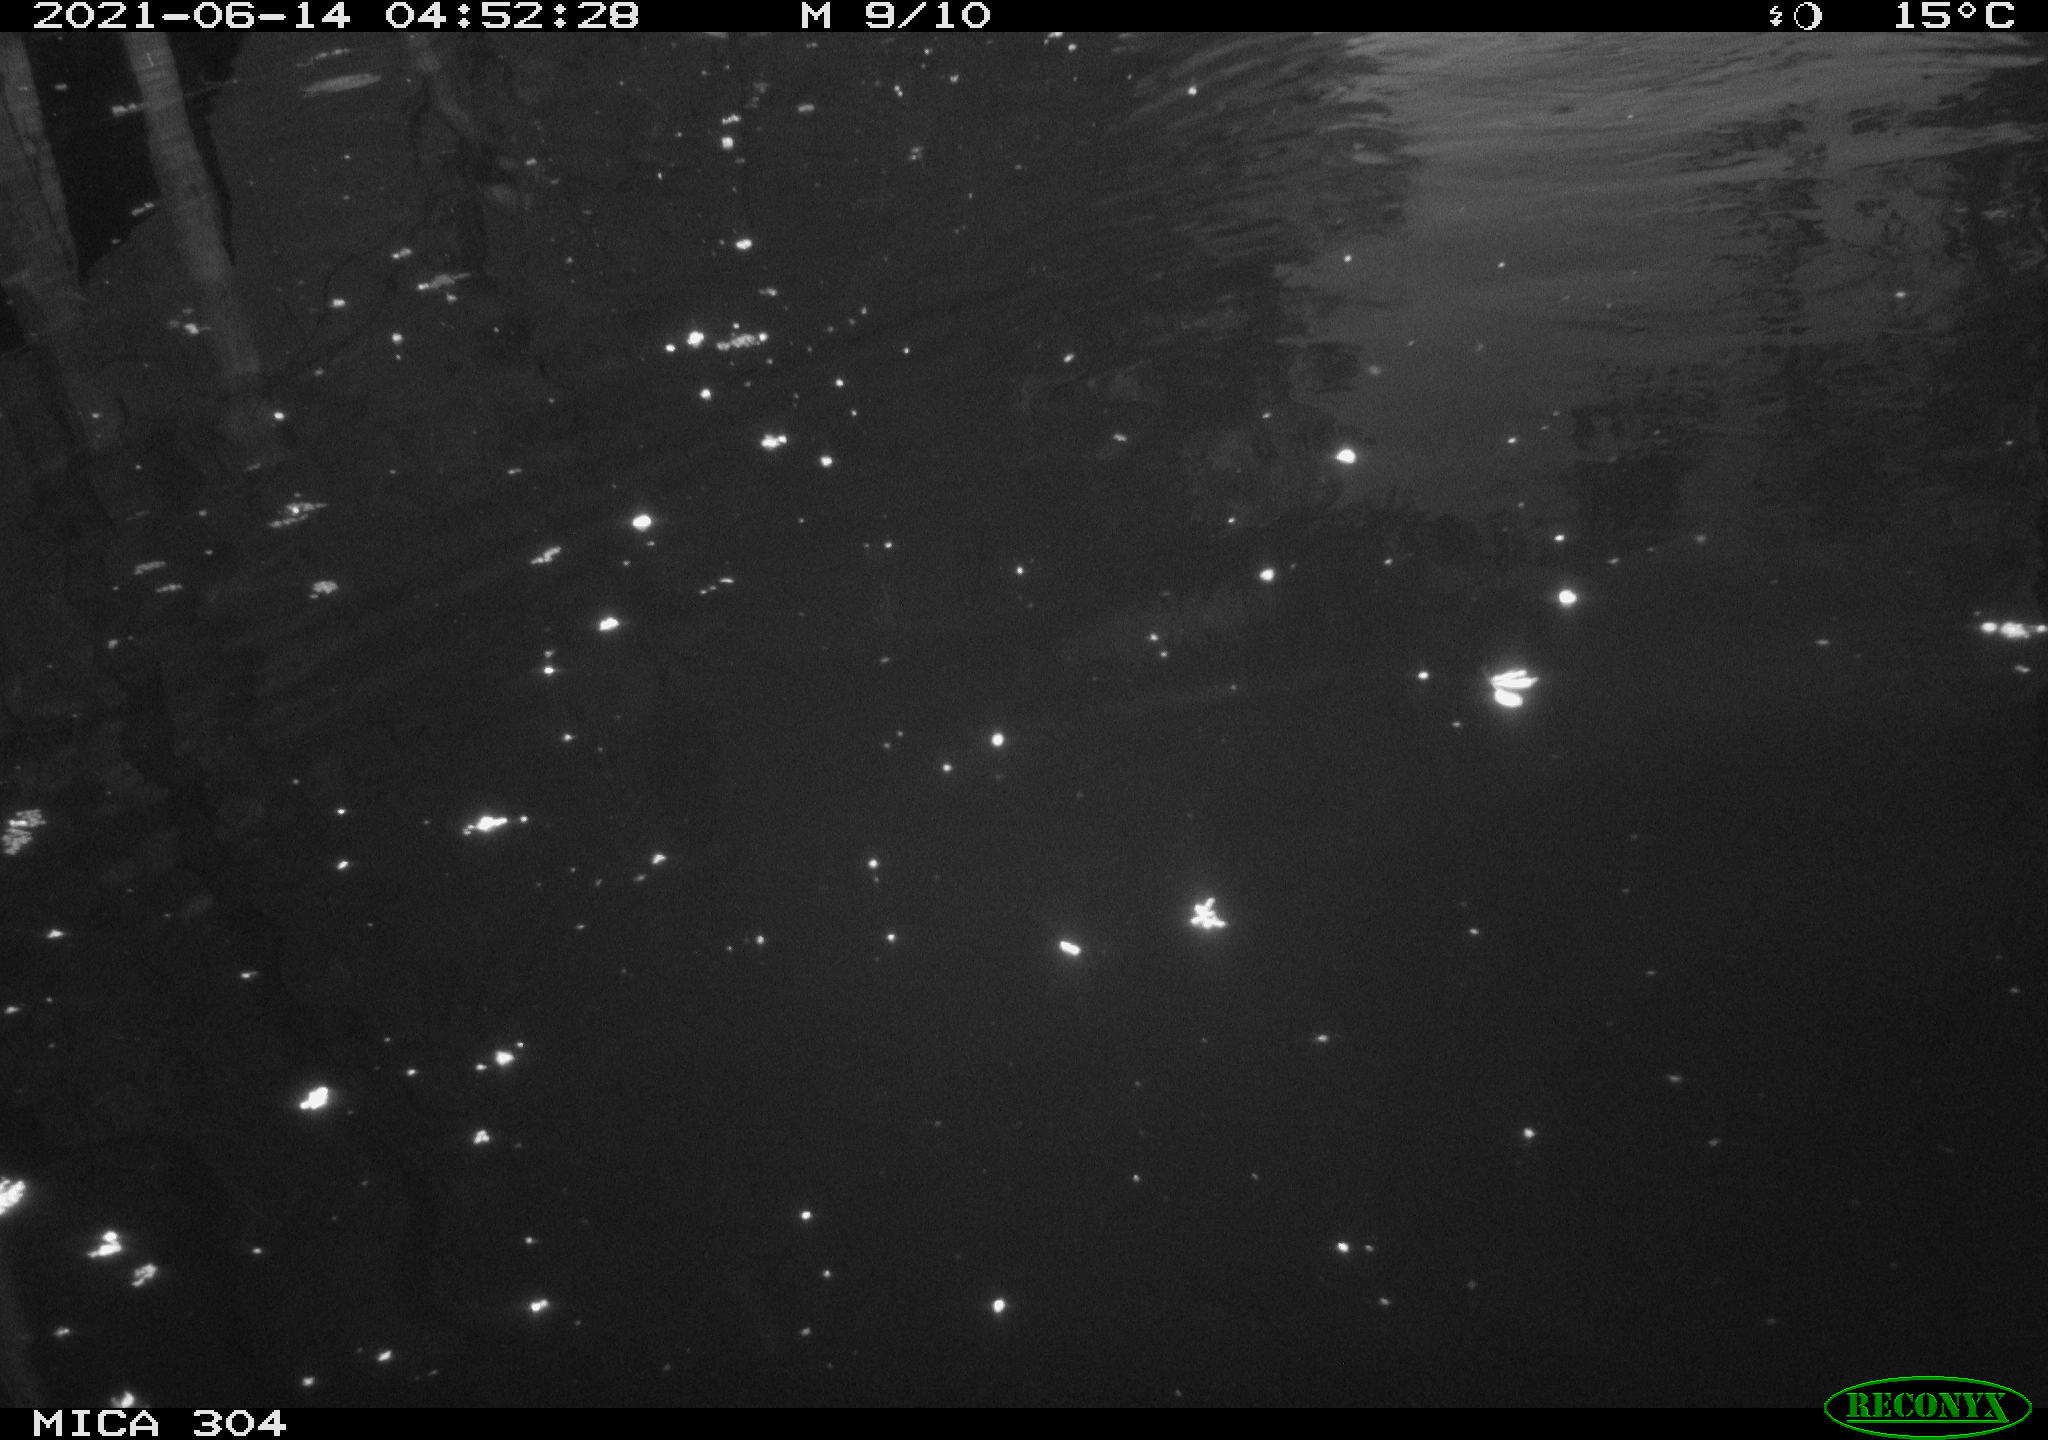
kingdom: Animalia
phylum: Chordata
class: Aves
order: Anseriformes
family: Anatidae
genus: Anas
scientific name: Anas platyrhynchos
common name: Mallard
